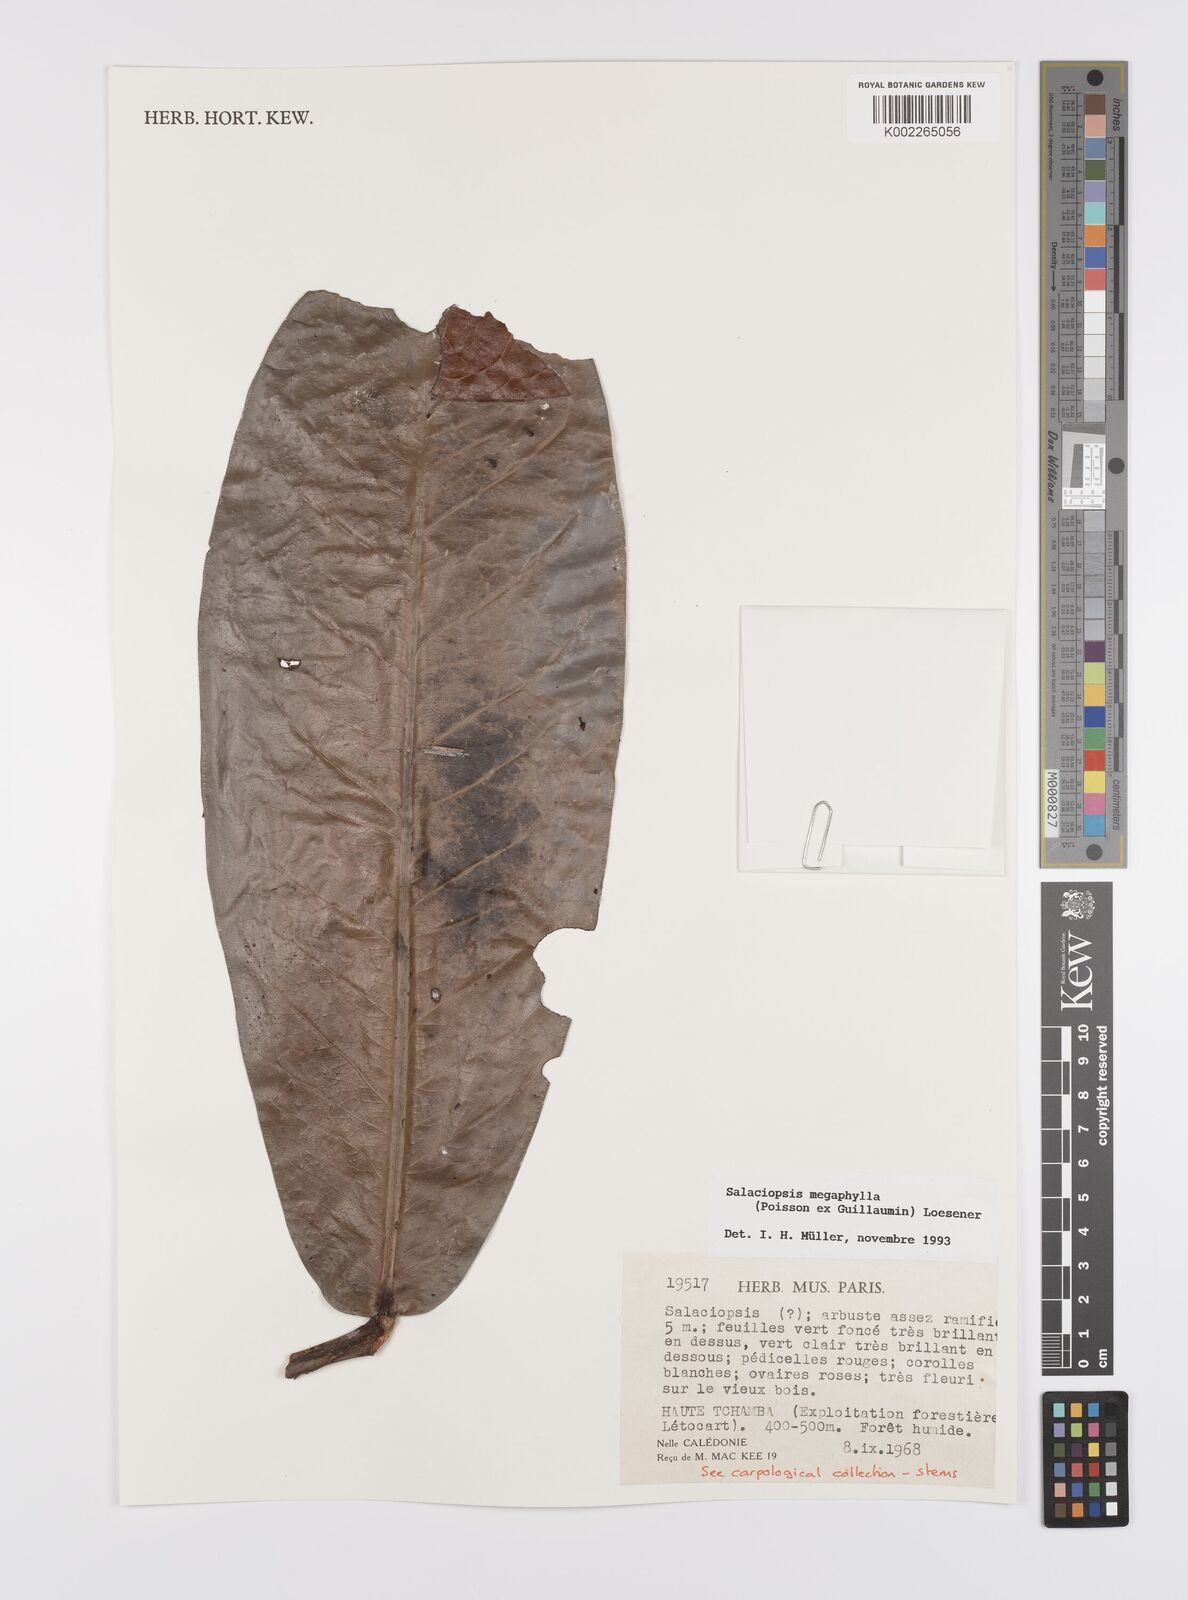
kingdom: Plantae
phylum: Tracheophyta
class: Magnoliopsida
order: Celastrales
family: Celastraceae
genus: Salaciopsis
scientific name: Salaciopsis megaphylla
